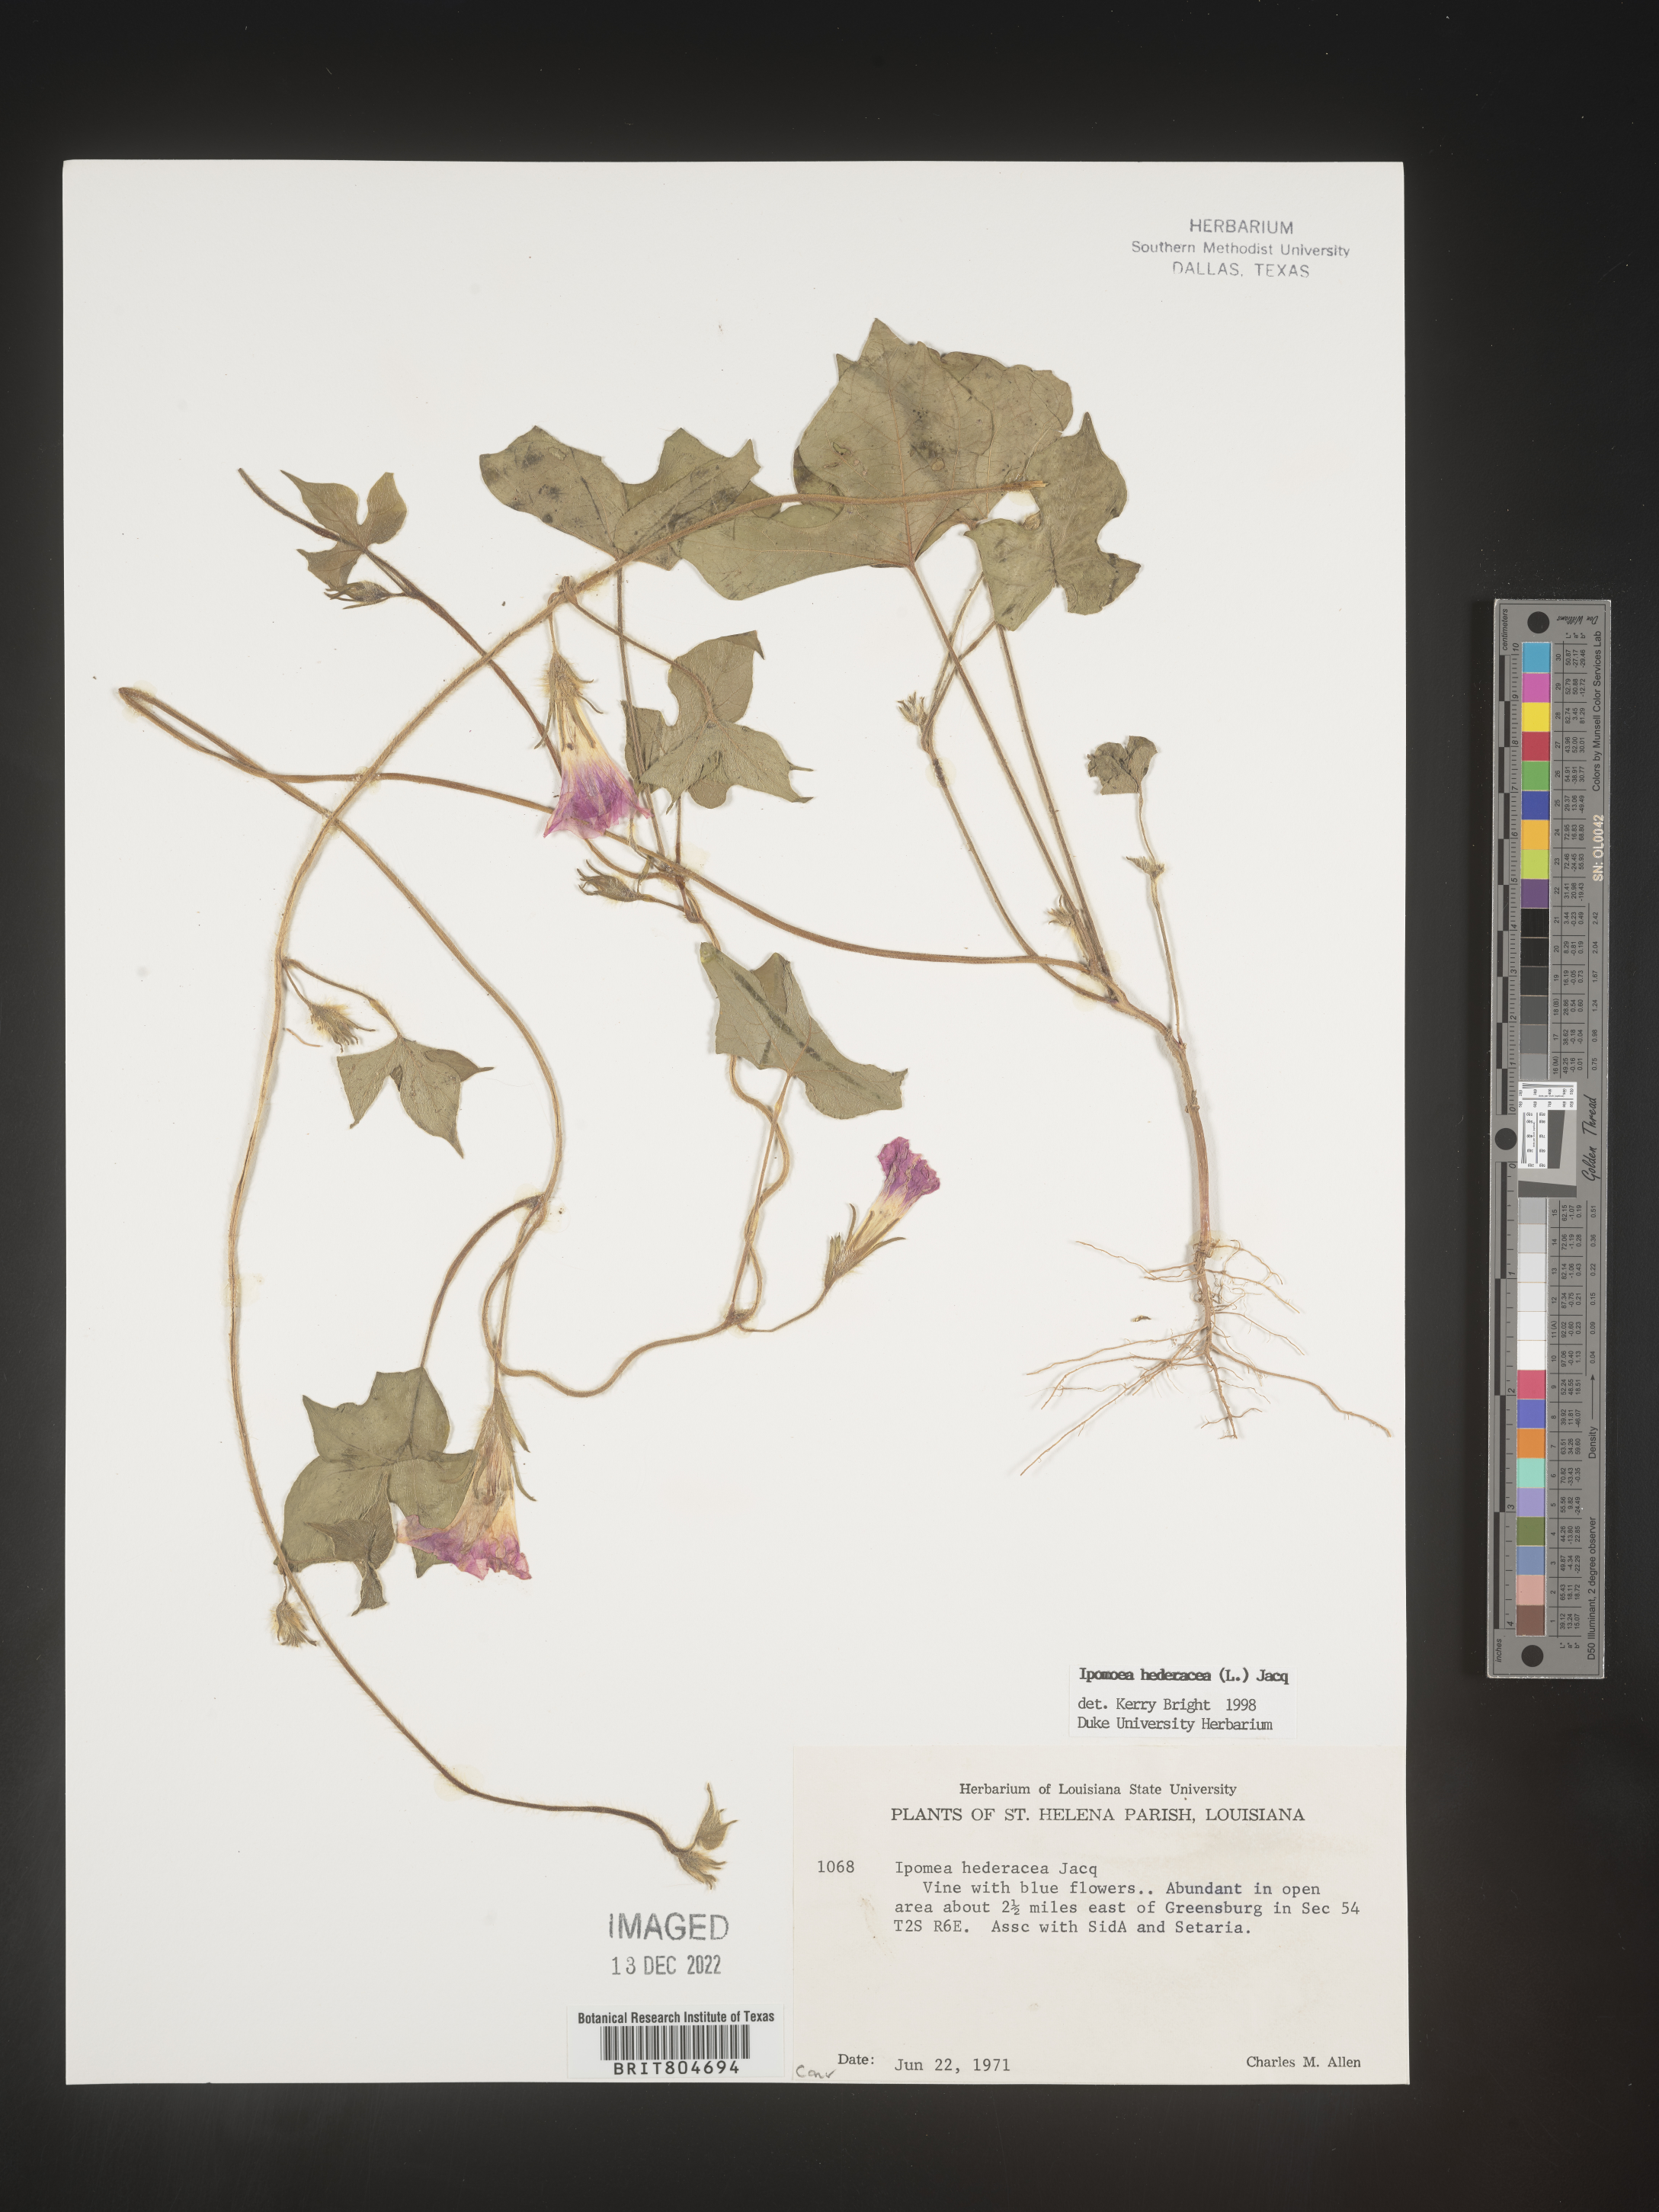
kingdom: Plantae
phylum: Tracheophyta
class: Magnoliopsida
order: Solanales
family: Convolvulaceae
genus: Ipomoea
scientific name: Ipomoea hederacea
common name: Ivy-leaved morning-glory
